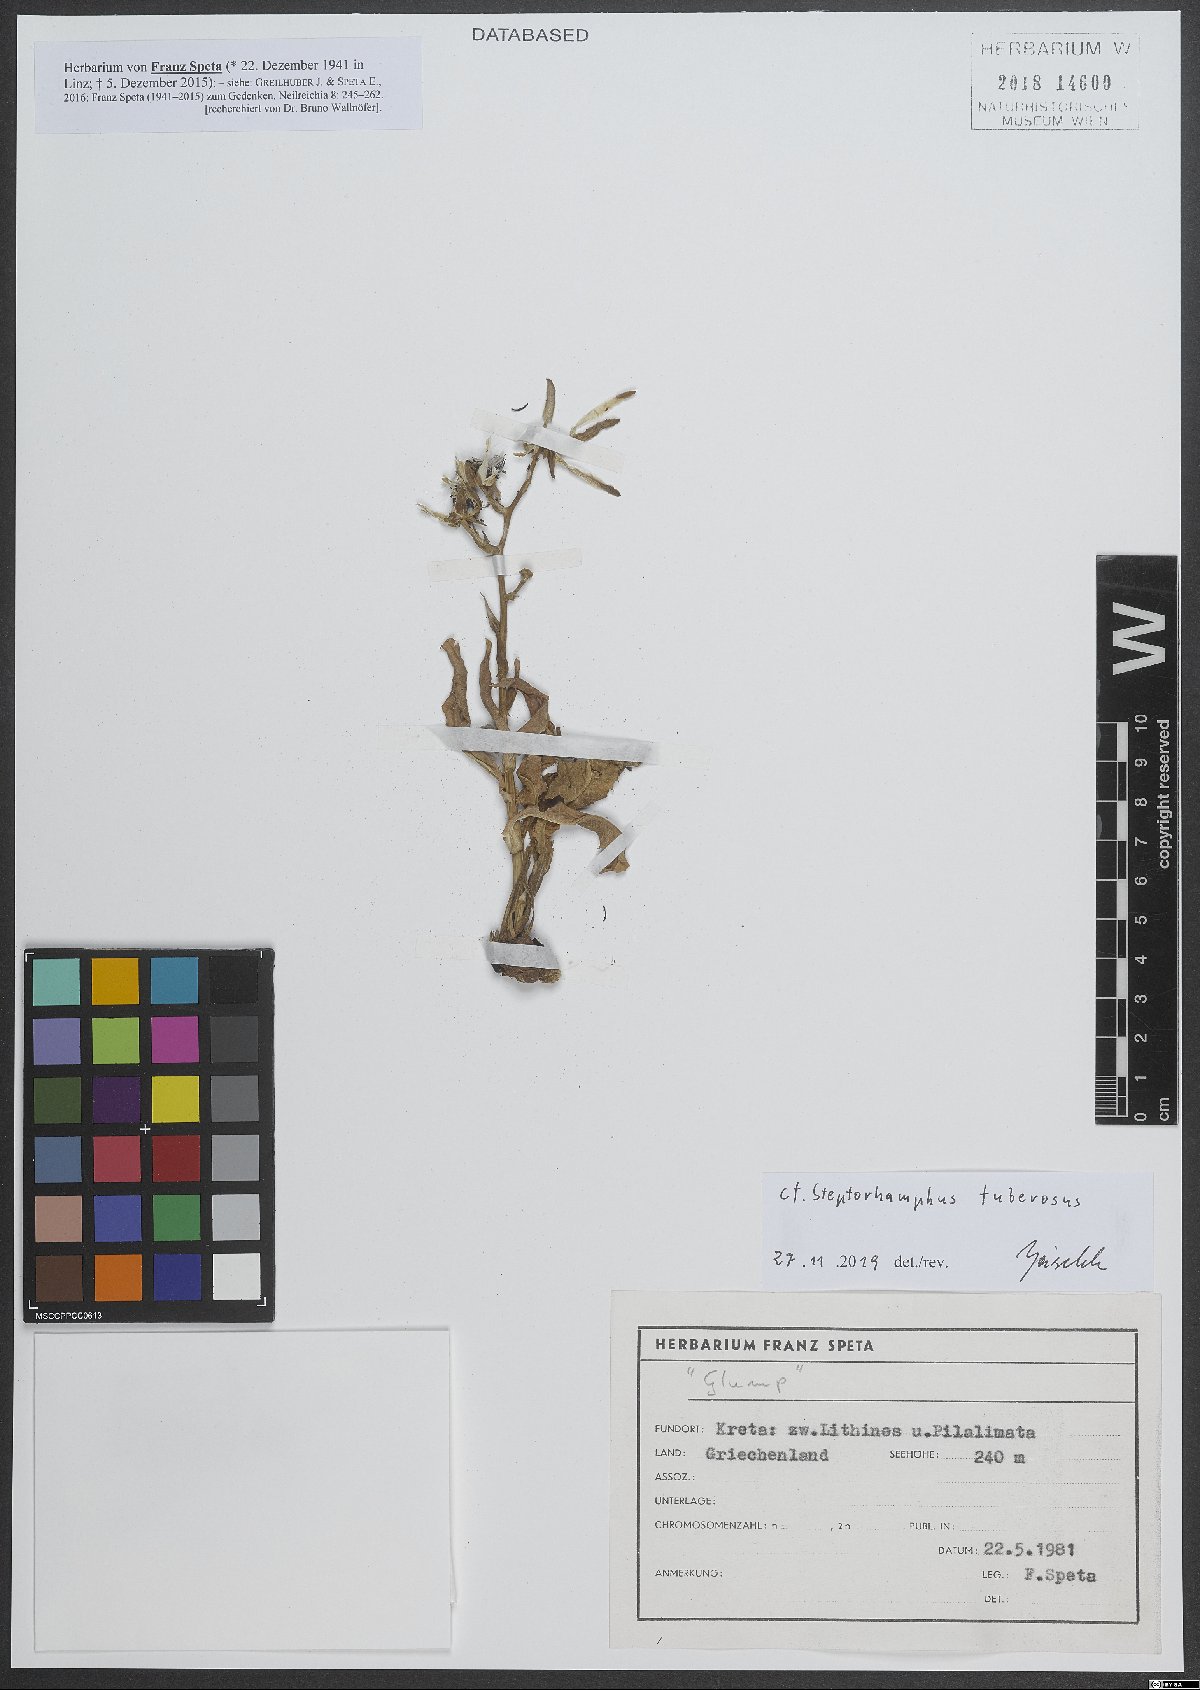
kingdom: Plantae
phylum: Tracheophyta
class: Magnoliopsida
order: Asterales
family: Asteraceae
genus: Lactuca
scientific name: Lactuca tuberosa
